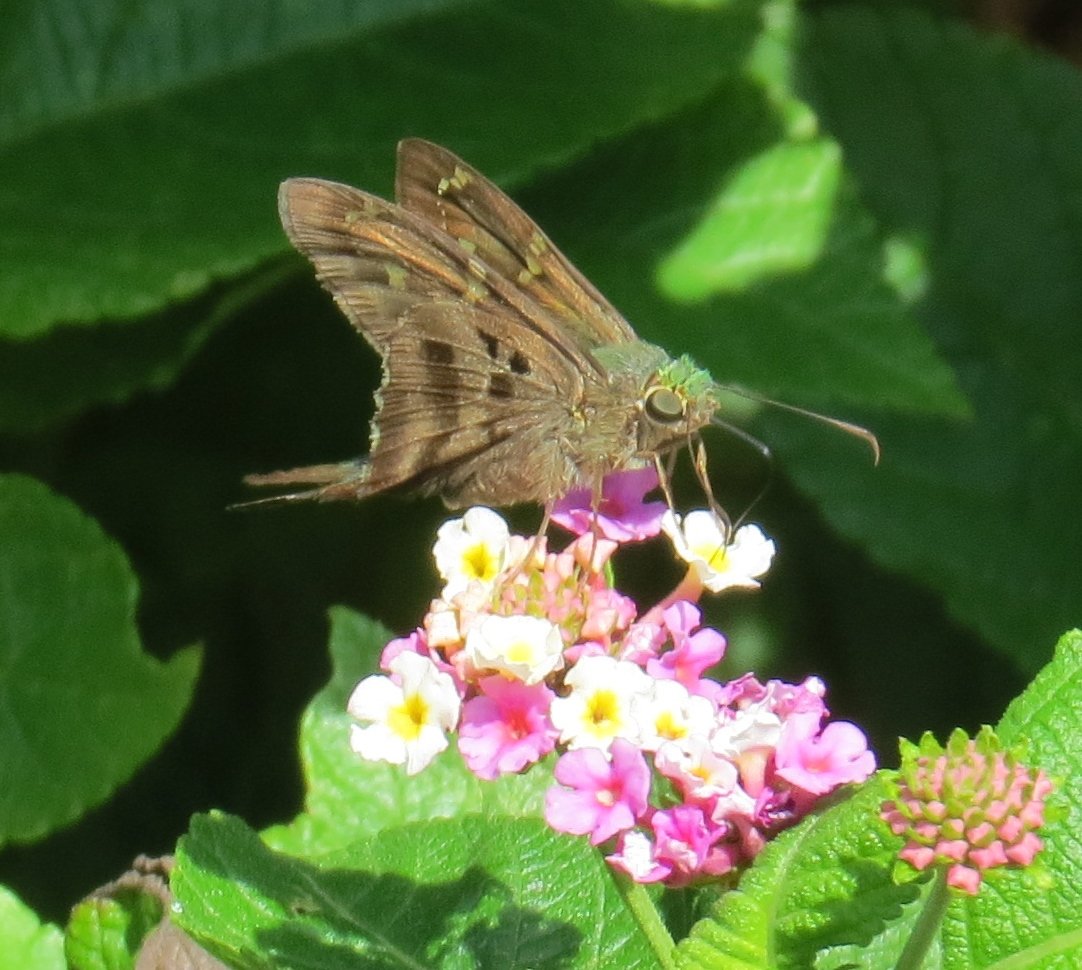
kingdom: Animalia
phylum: Arthropoda
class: Insecta
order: Lepidoptera
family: Hesperiidae
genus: Urbanus
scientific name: Urbanus proteus
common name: Long-tailed Skipper
